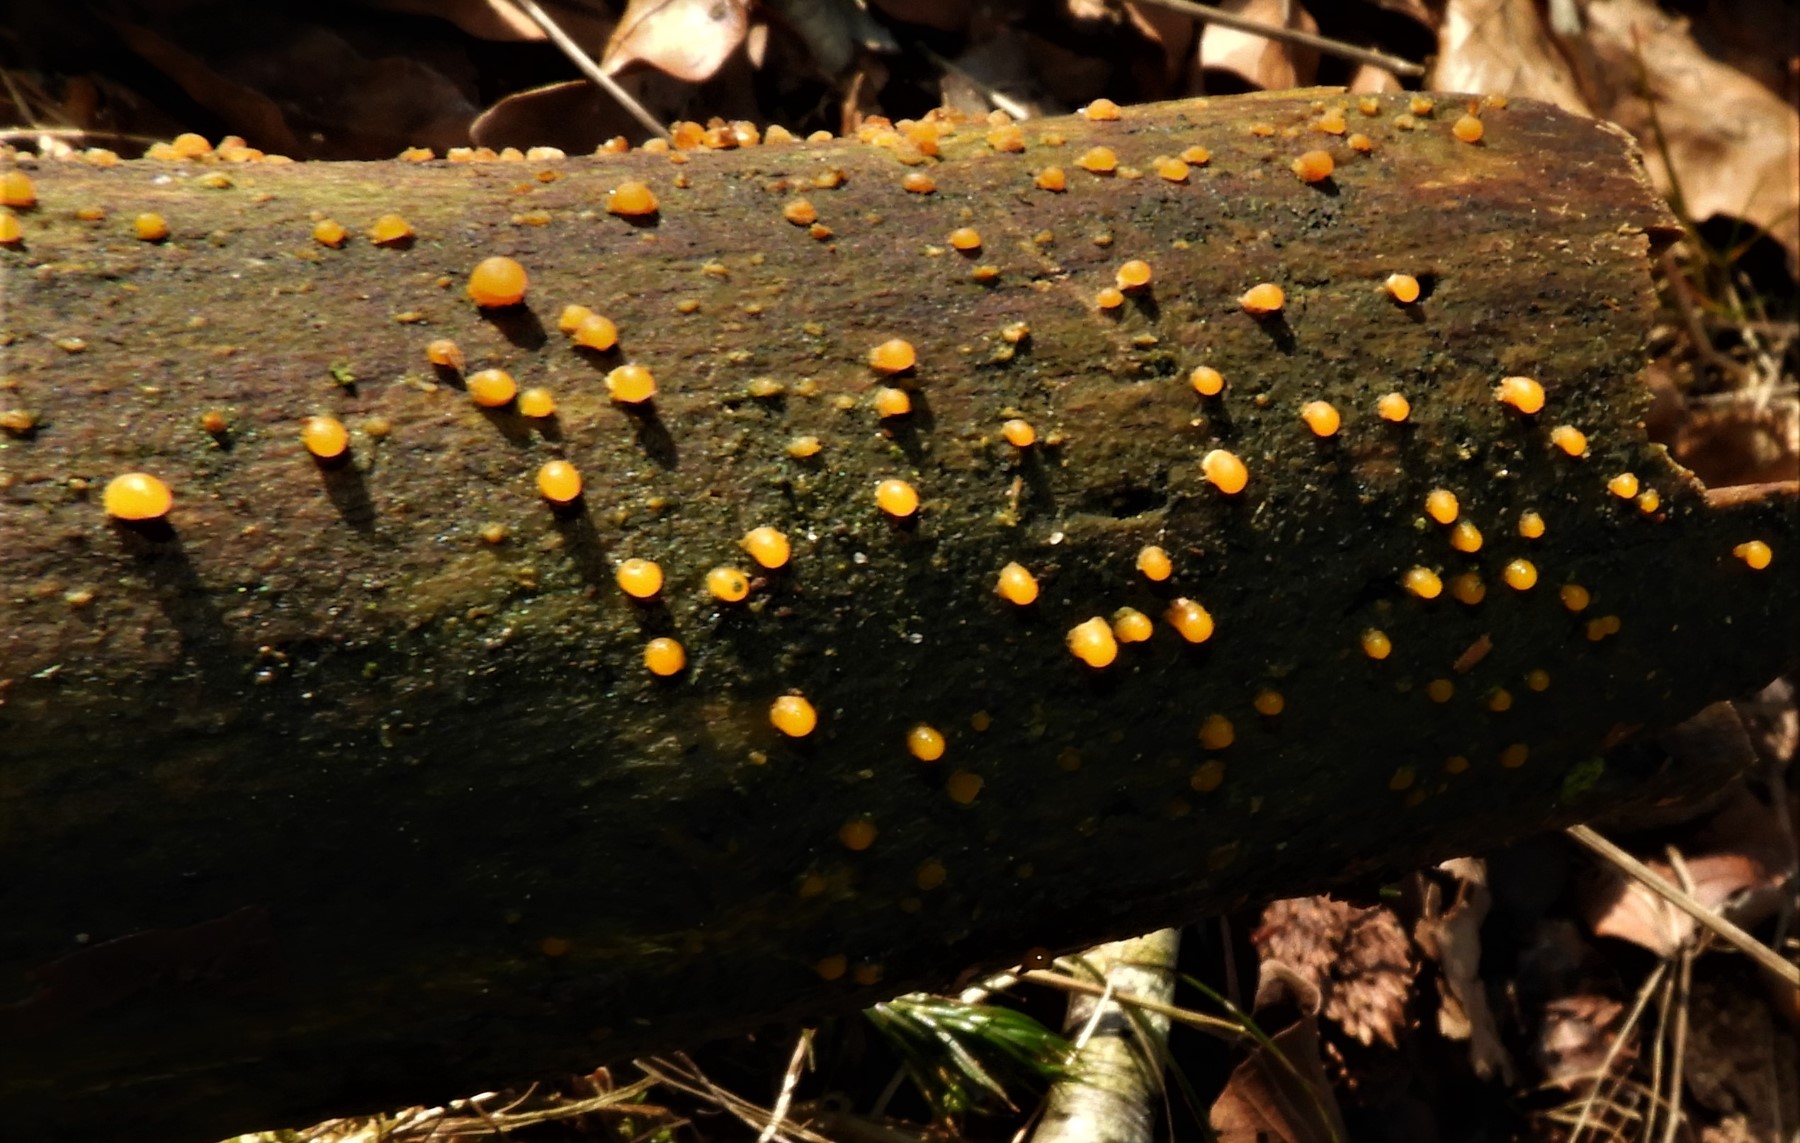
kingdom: Fungi
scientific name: Fungi
